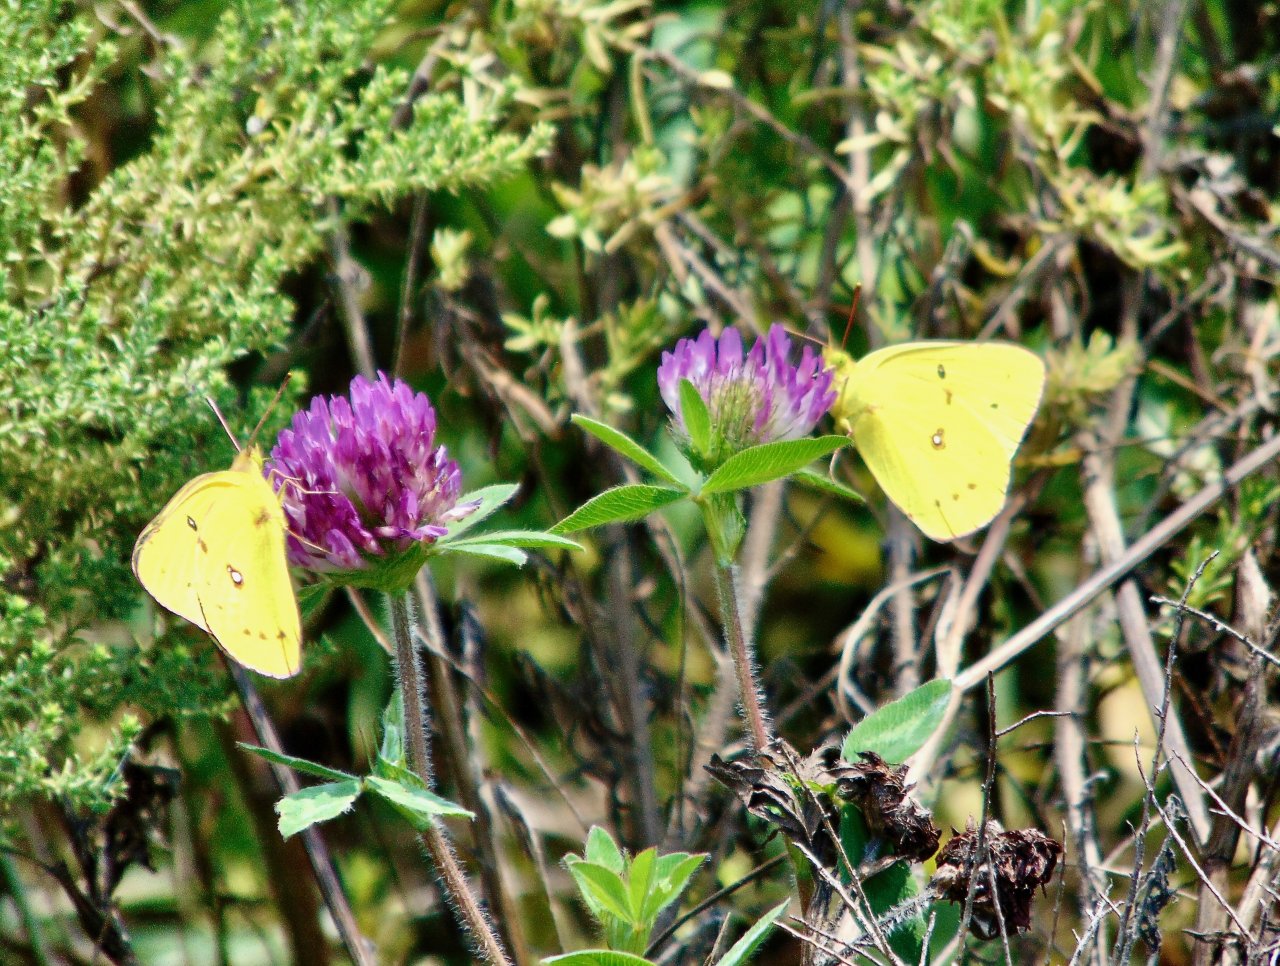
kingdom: Animalia
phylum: Arthropoda
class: Insecta
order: Lepidoptera
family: Pieridae
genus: Colias
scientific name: Colias philodice
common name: Clouded Sulphur
